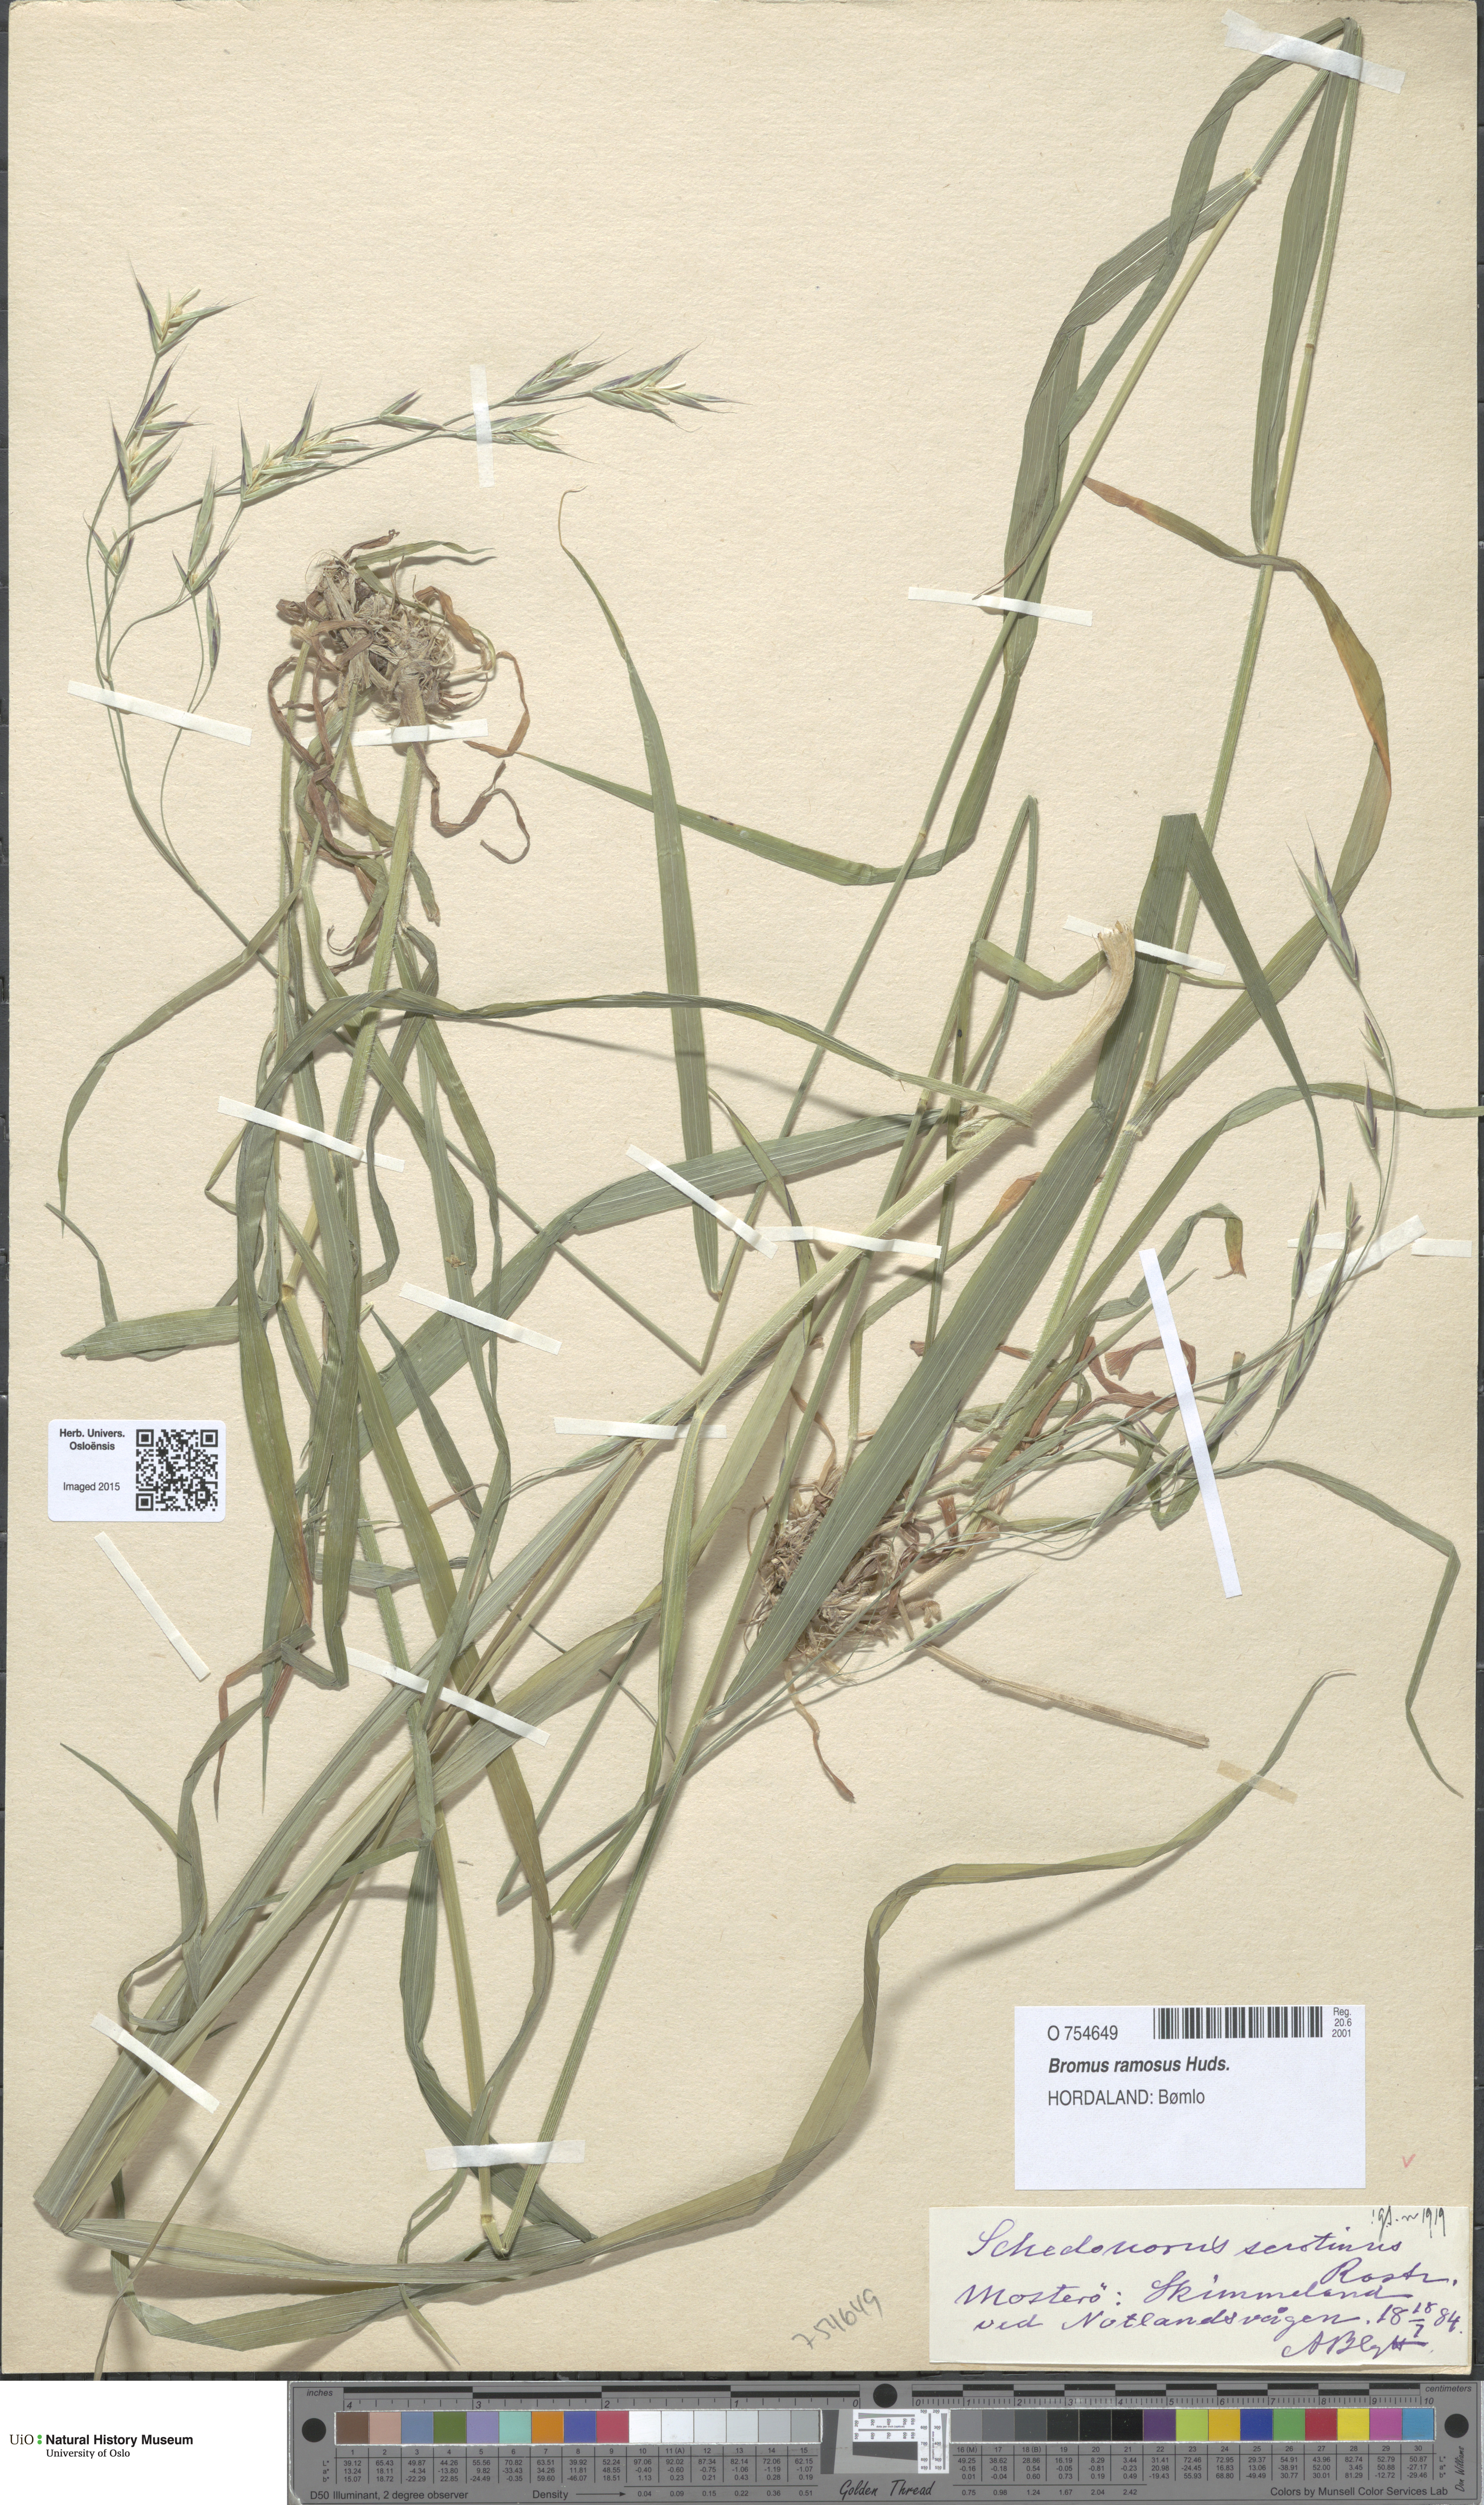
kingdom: Plantae
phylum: Tracheophyta
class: Liliopsida
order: Poales
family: Poaceae
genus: Bromus
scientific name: Bromus ramosus
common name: Hairy brome
